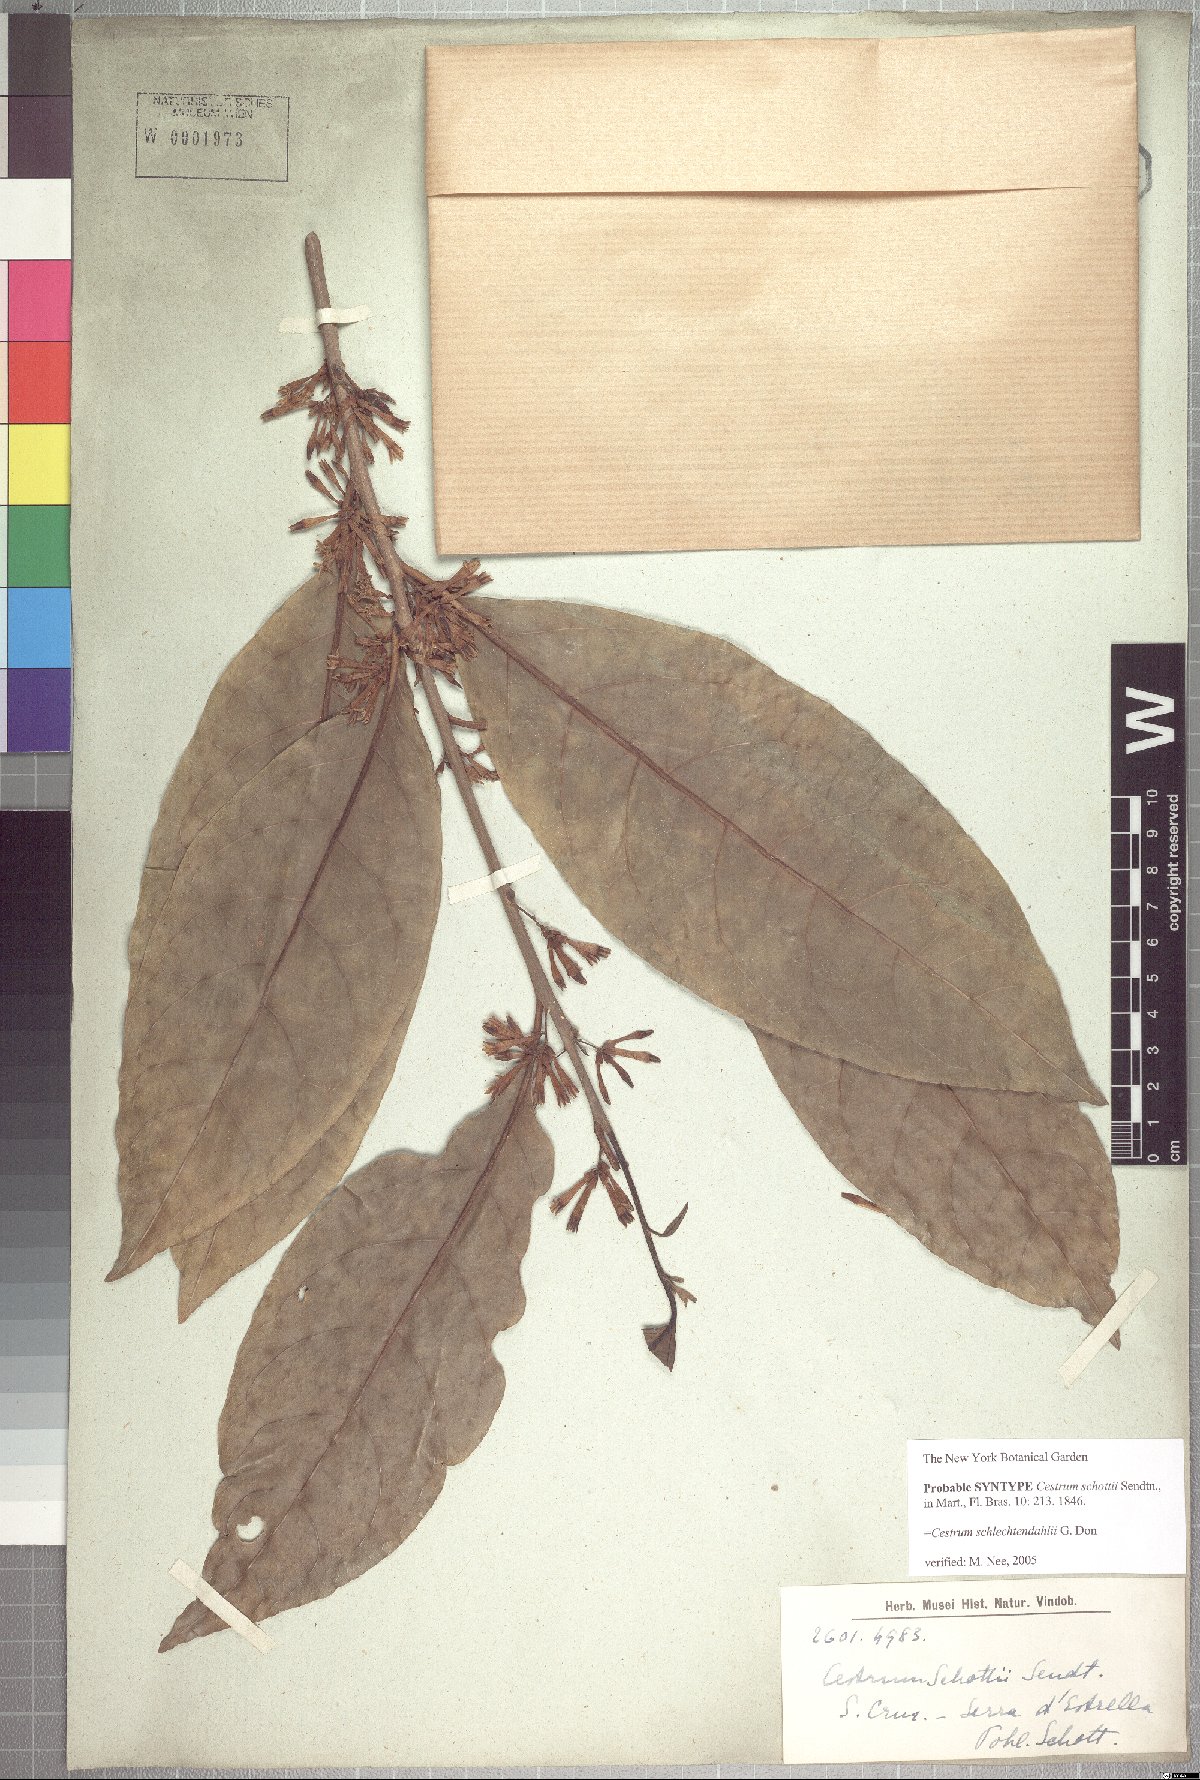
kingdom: Plantae
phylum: Tracheophyta
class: Magnoliopsida
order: Solanales
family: Solanaceae
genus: Cestrum
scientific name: Cestrum coriaceum
